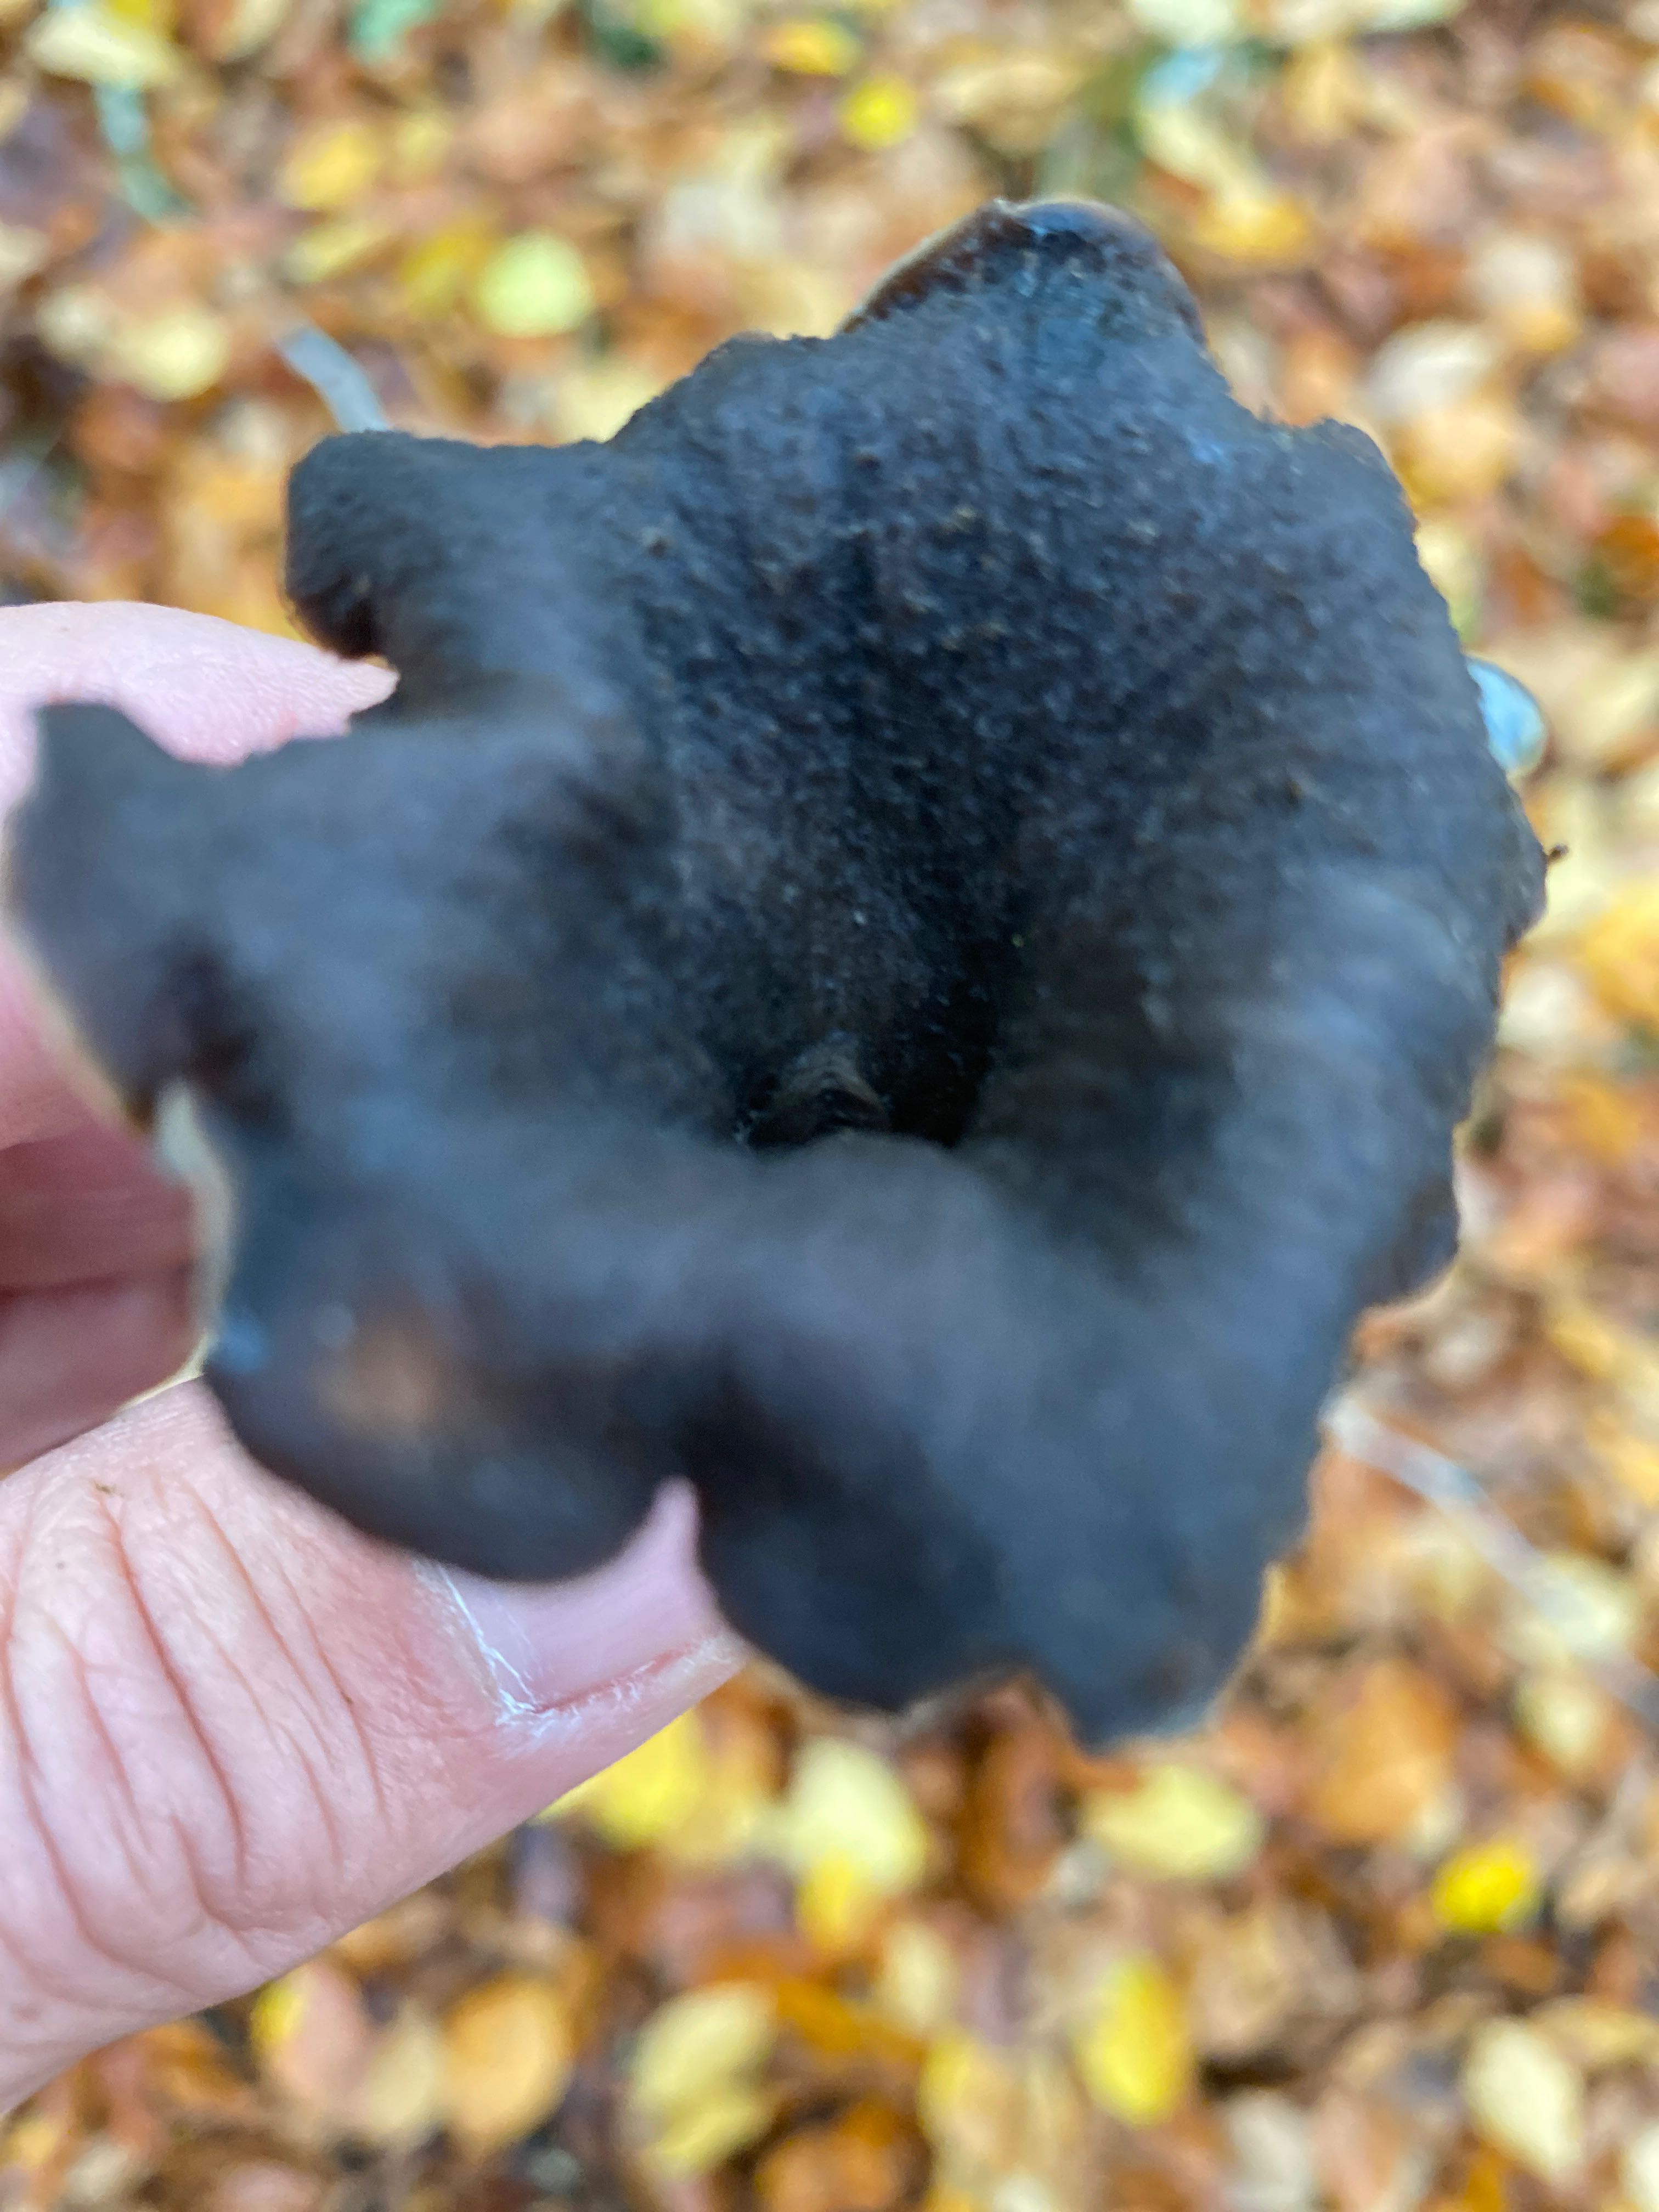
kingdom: Fungi
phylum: Basidiomycota
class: Agaricomycetes
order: Cantharellales
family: Hydnaceae
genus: Craterellus
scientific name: Craterellus cornucopioides
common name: trompetsvamp
